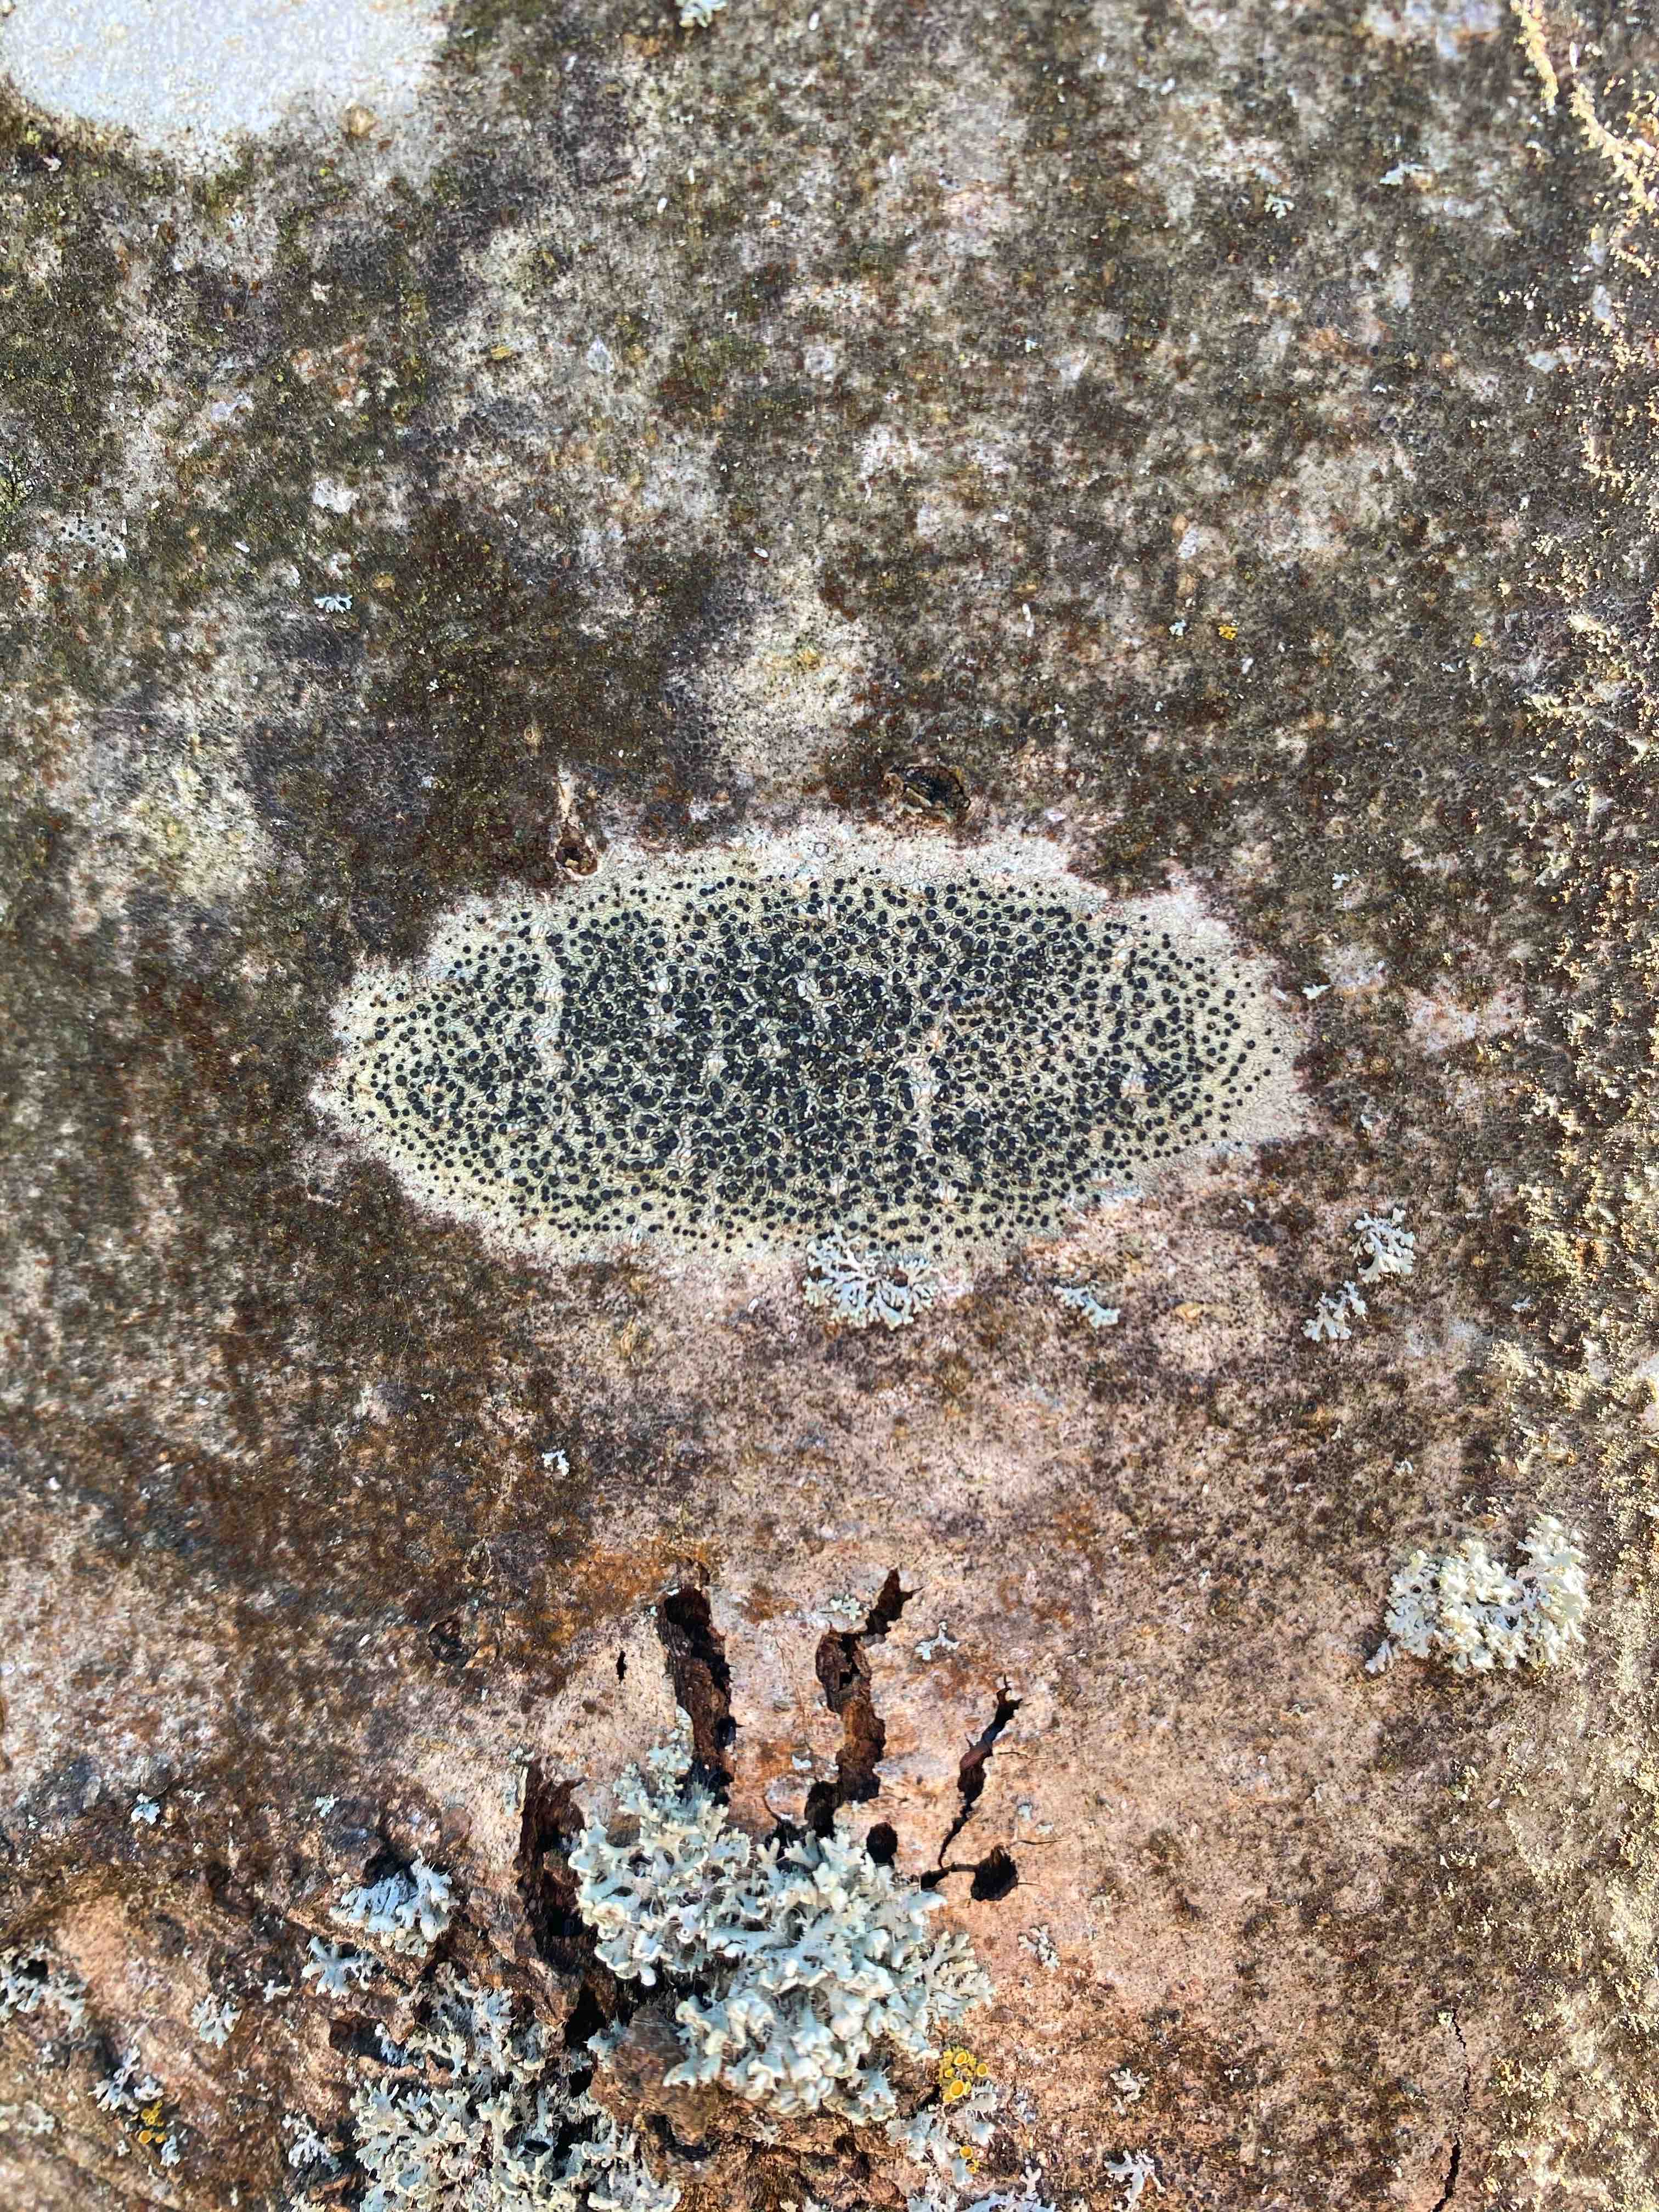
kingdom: Fungi
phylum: Ascomycota
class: Lecanoromycetes
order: Lecanorales
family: Lecanoraceae
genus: Lecidella
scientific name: Lecidella elaeochroma
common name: grågrøn skivelav
